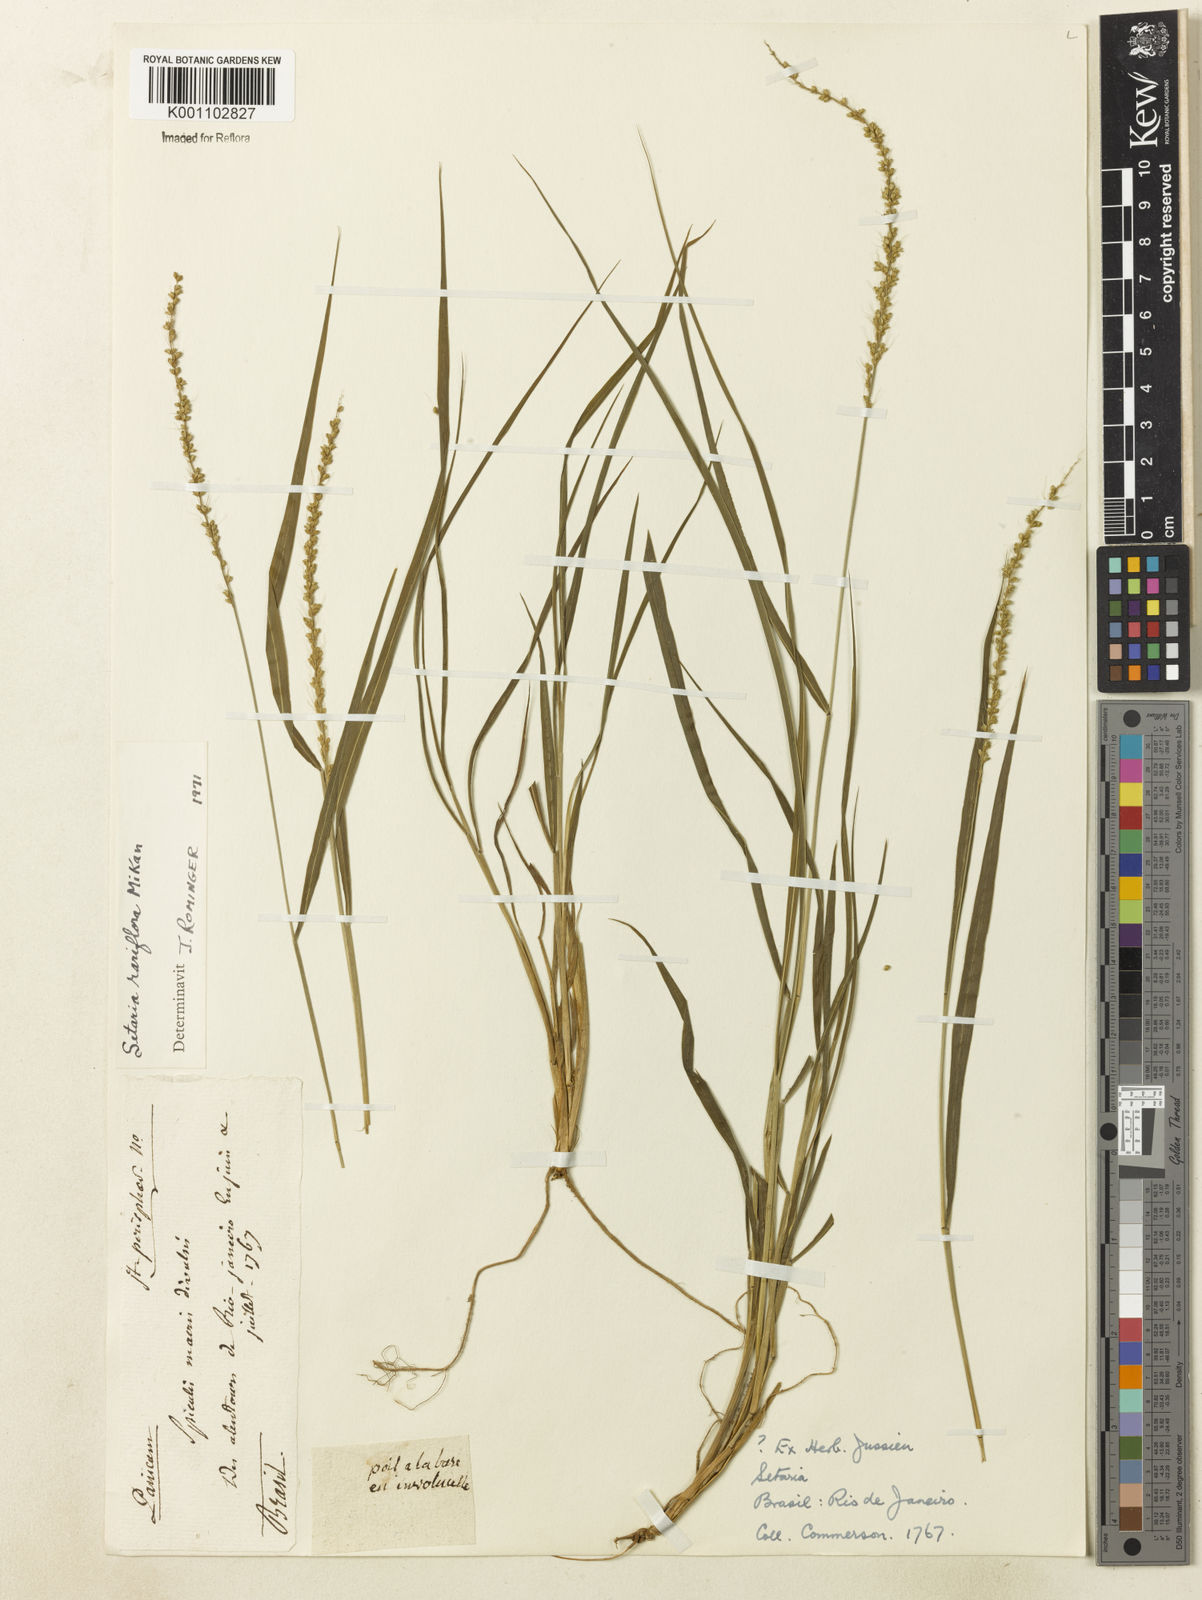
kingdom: Plantae
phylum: Tracheophyta
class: Liliopsida
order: Poales
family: Poaceae
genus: Setaria
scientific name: Setaria setosa
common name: West indies bristle grass
